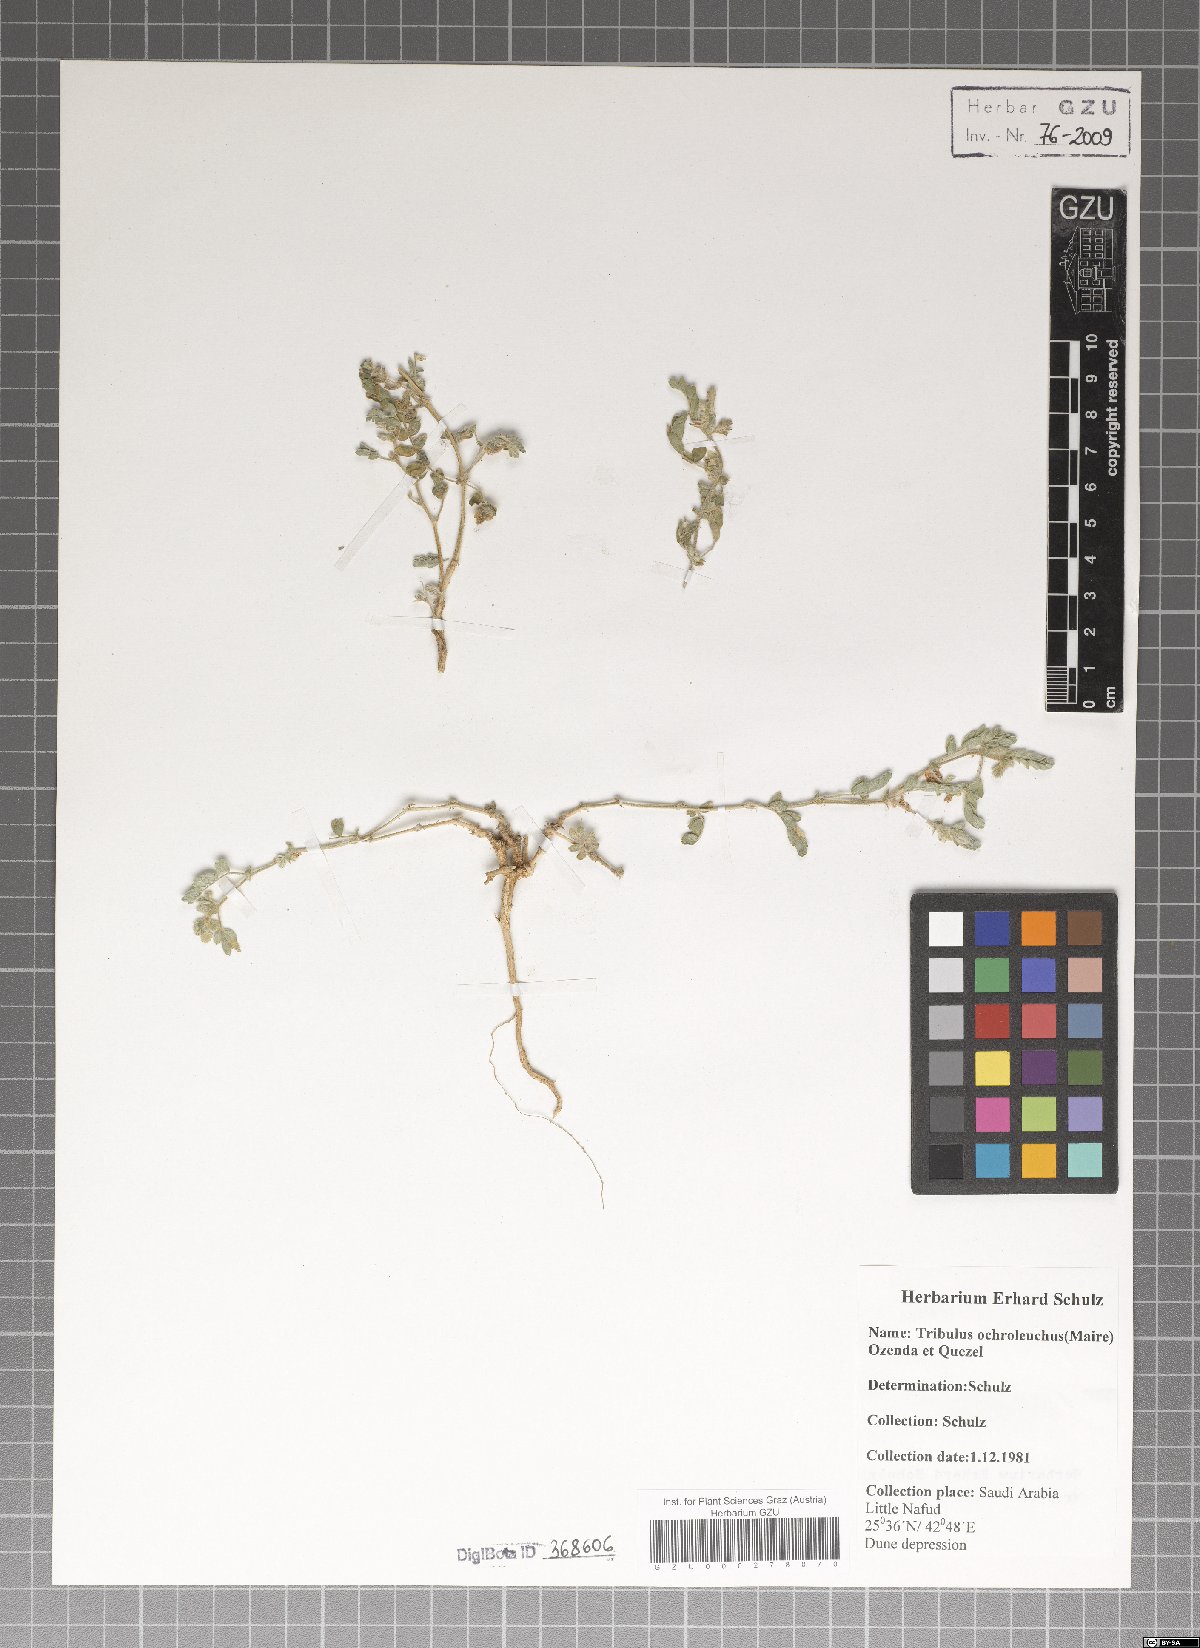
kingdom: Plantae
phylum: Tracheophyta
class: Magnoliopsida
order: Zygophyllales
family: Zygophyllaceae
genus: Tribulus
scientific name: Tribulus ochroleucus
